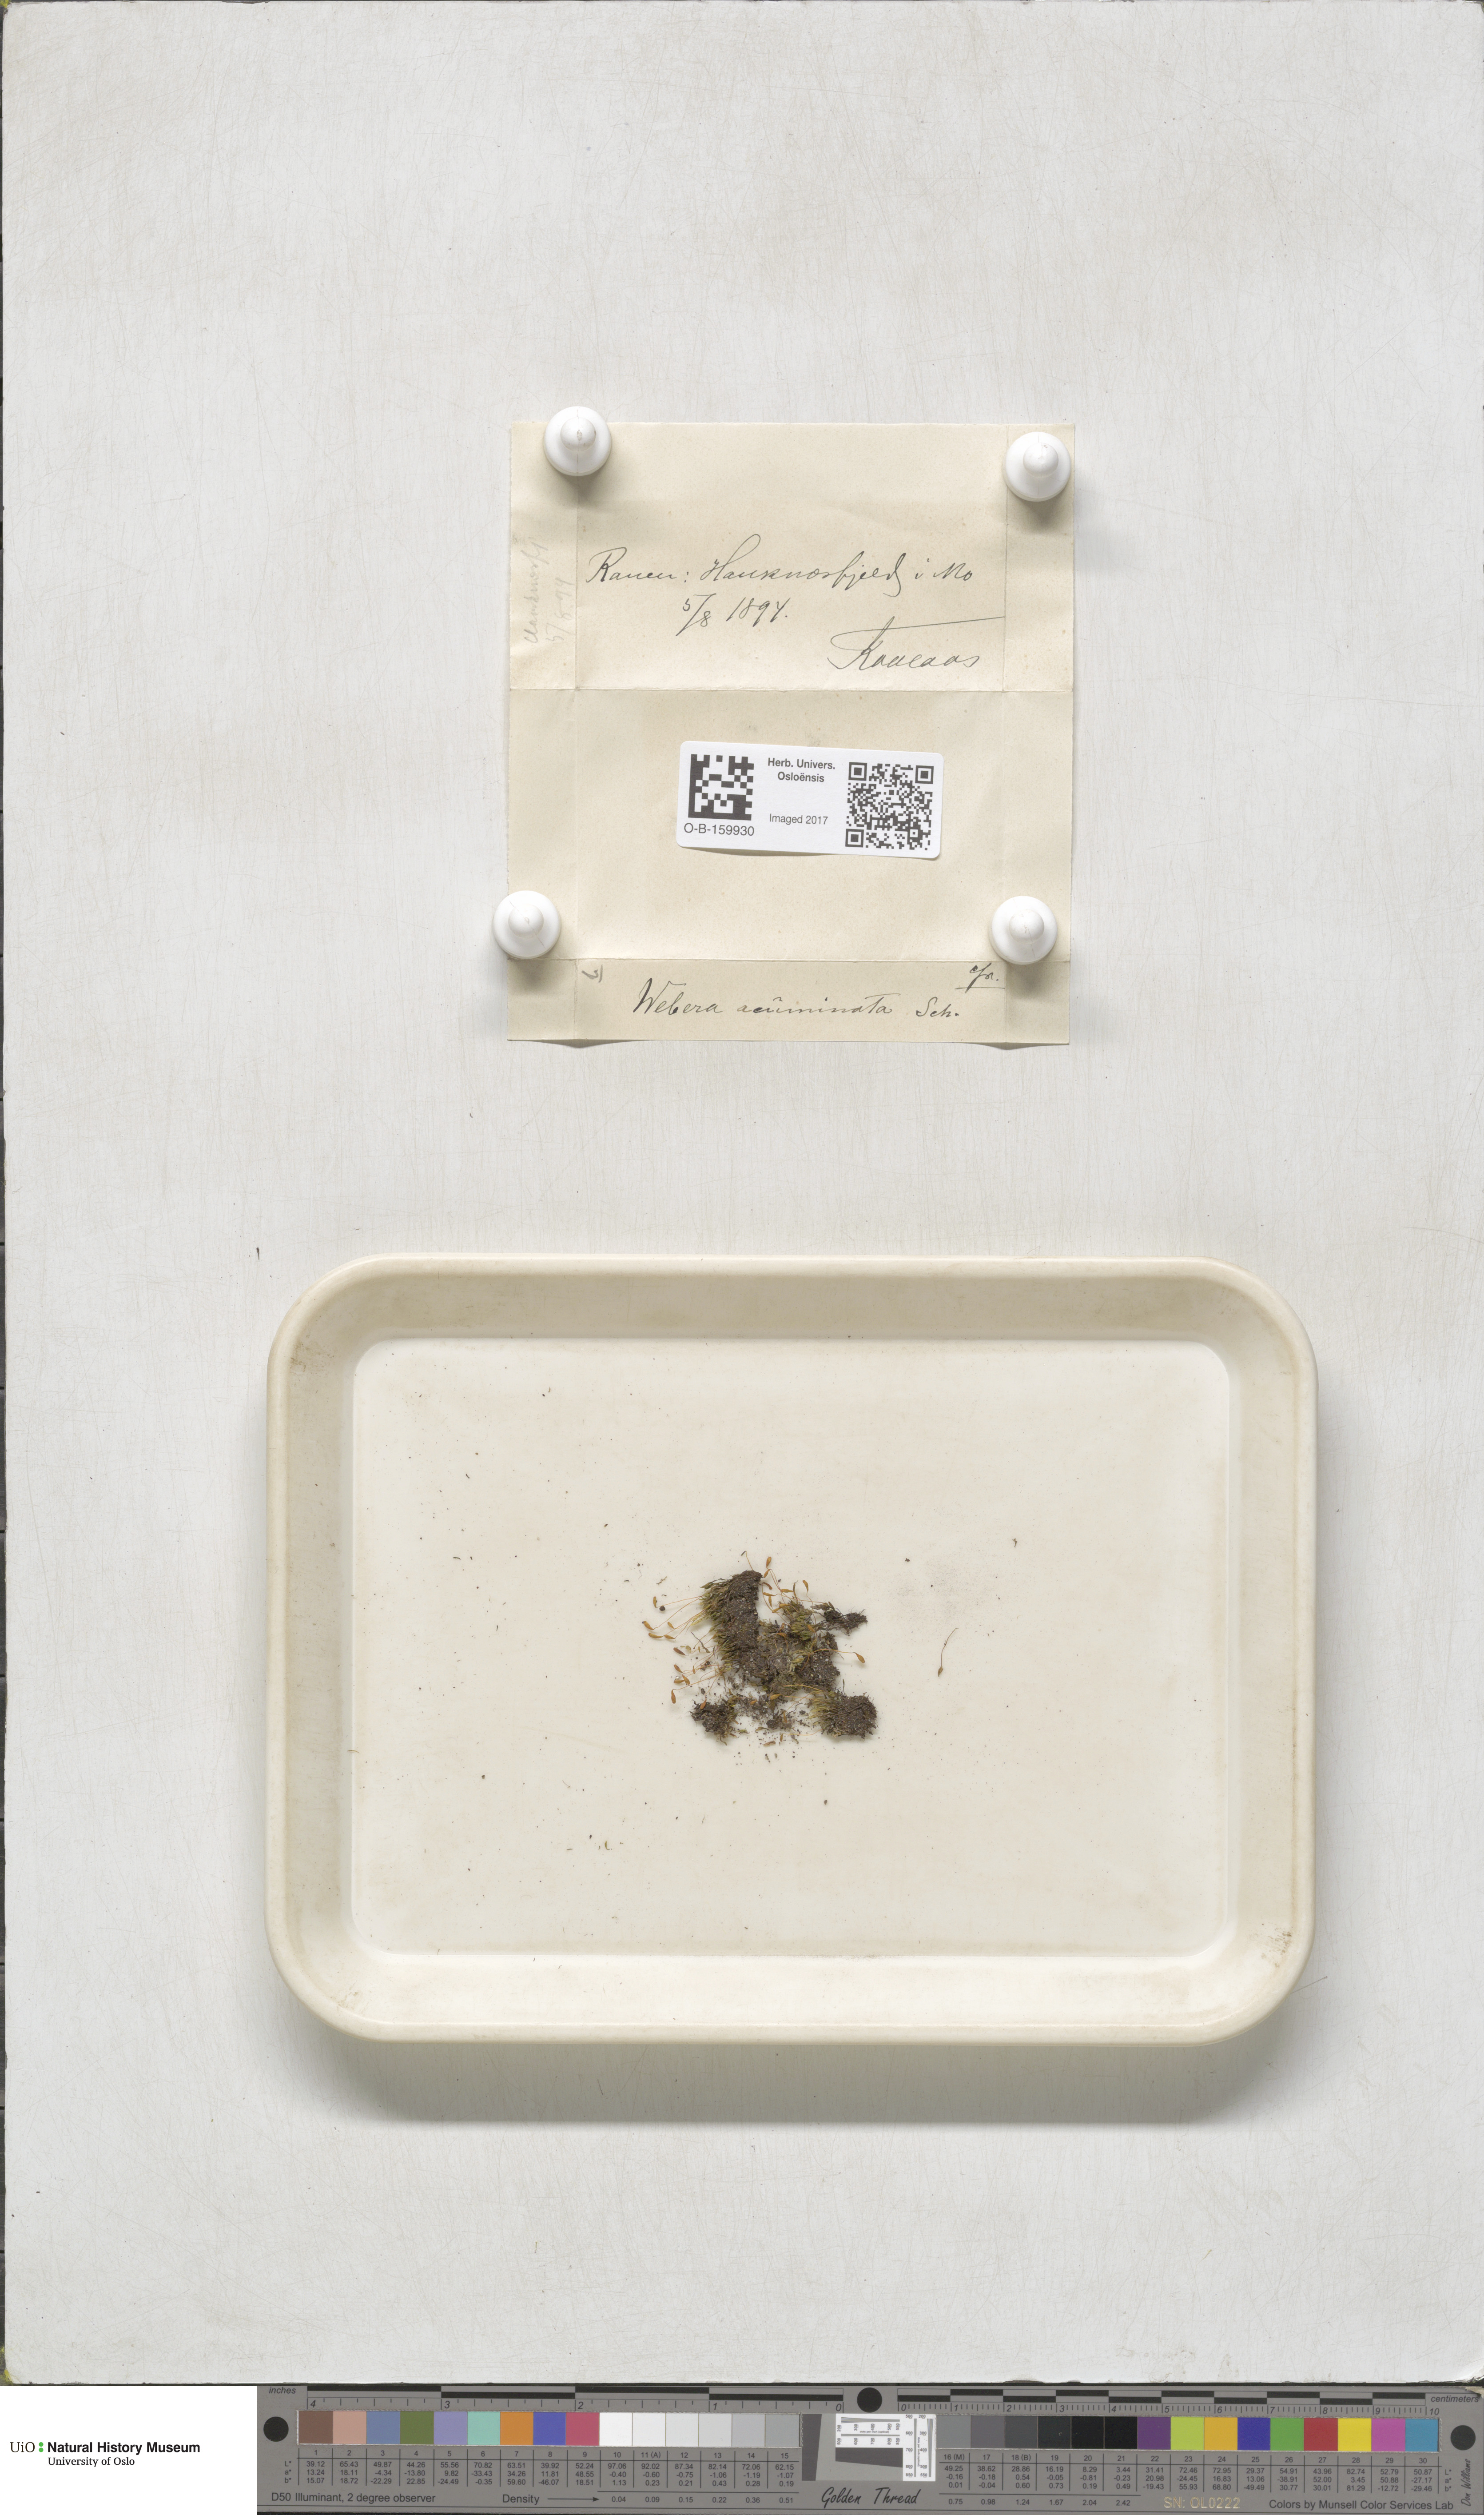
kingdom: Plantae
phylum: Bryophyta
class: Bryopsida
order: Bryales
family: Mniaceae
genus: Pohlia
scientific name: Pohlia elongata
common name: Long-fruited thread-moss
